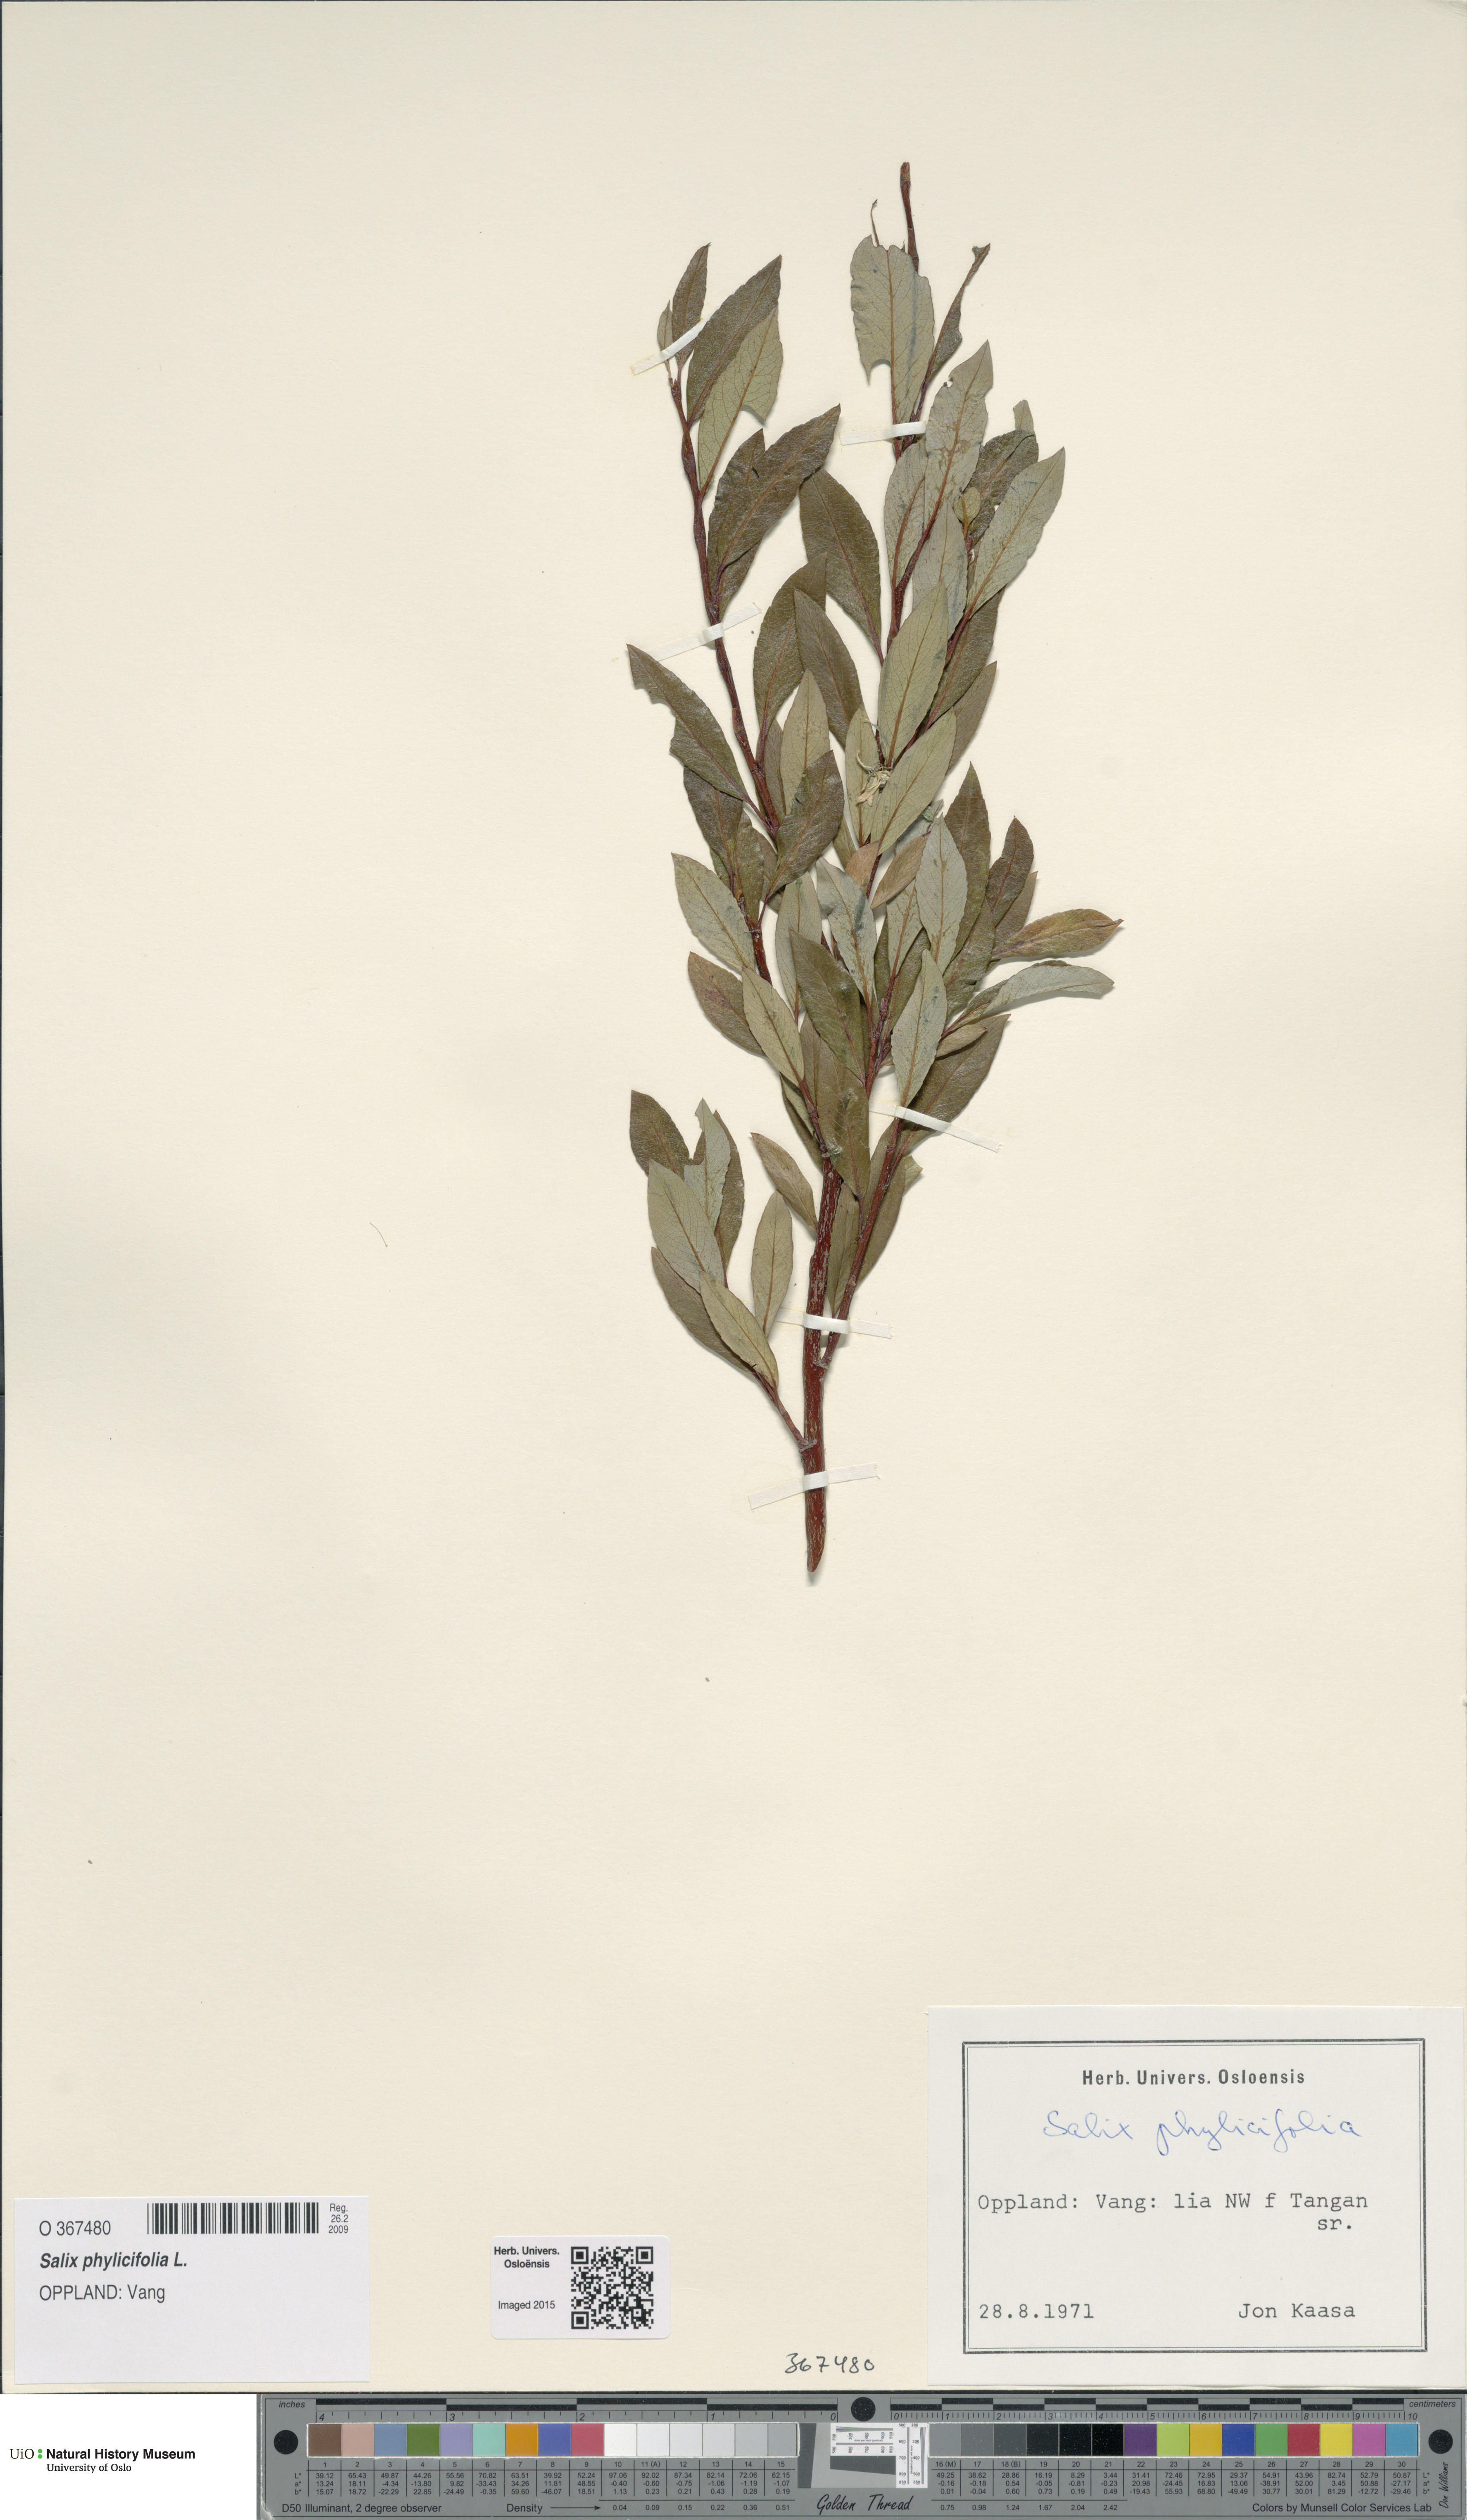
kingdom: Plantae
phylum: Tracheophyta
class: Magnoliopsida
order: Malpighiales
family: Salicaceae
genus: Salix
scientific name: Salix phylicifolia
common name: Tea-leaved willow
